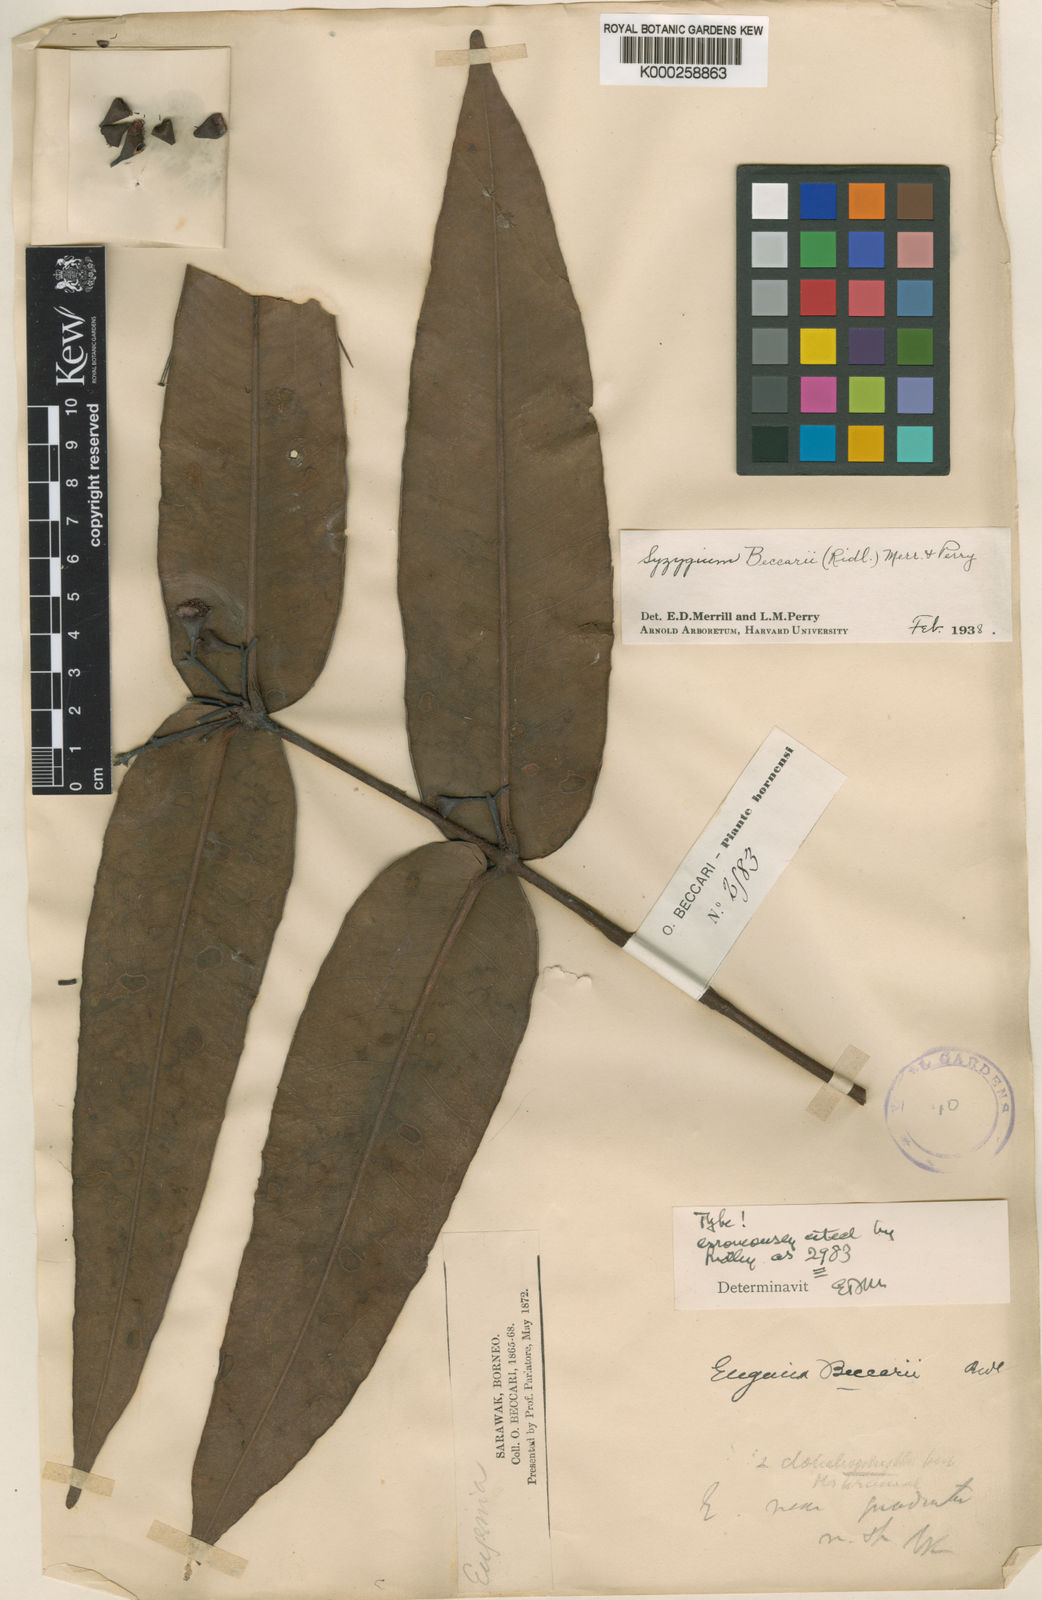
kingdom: Plantae
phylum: Tracheophyta
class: Magnoliopsida
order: Myrtales
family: Myrtaceae
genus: Syzygium
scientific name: Syzygium beccarii
